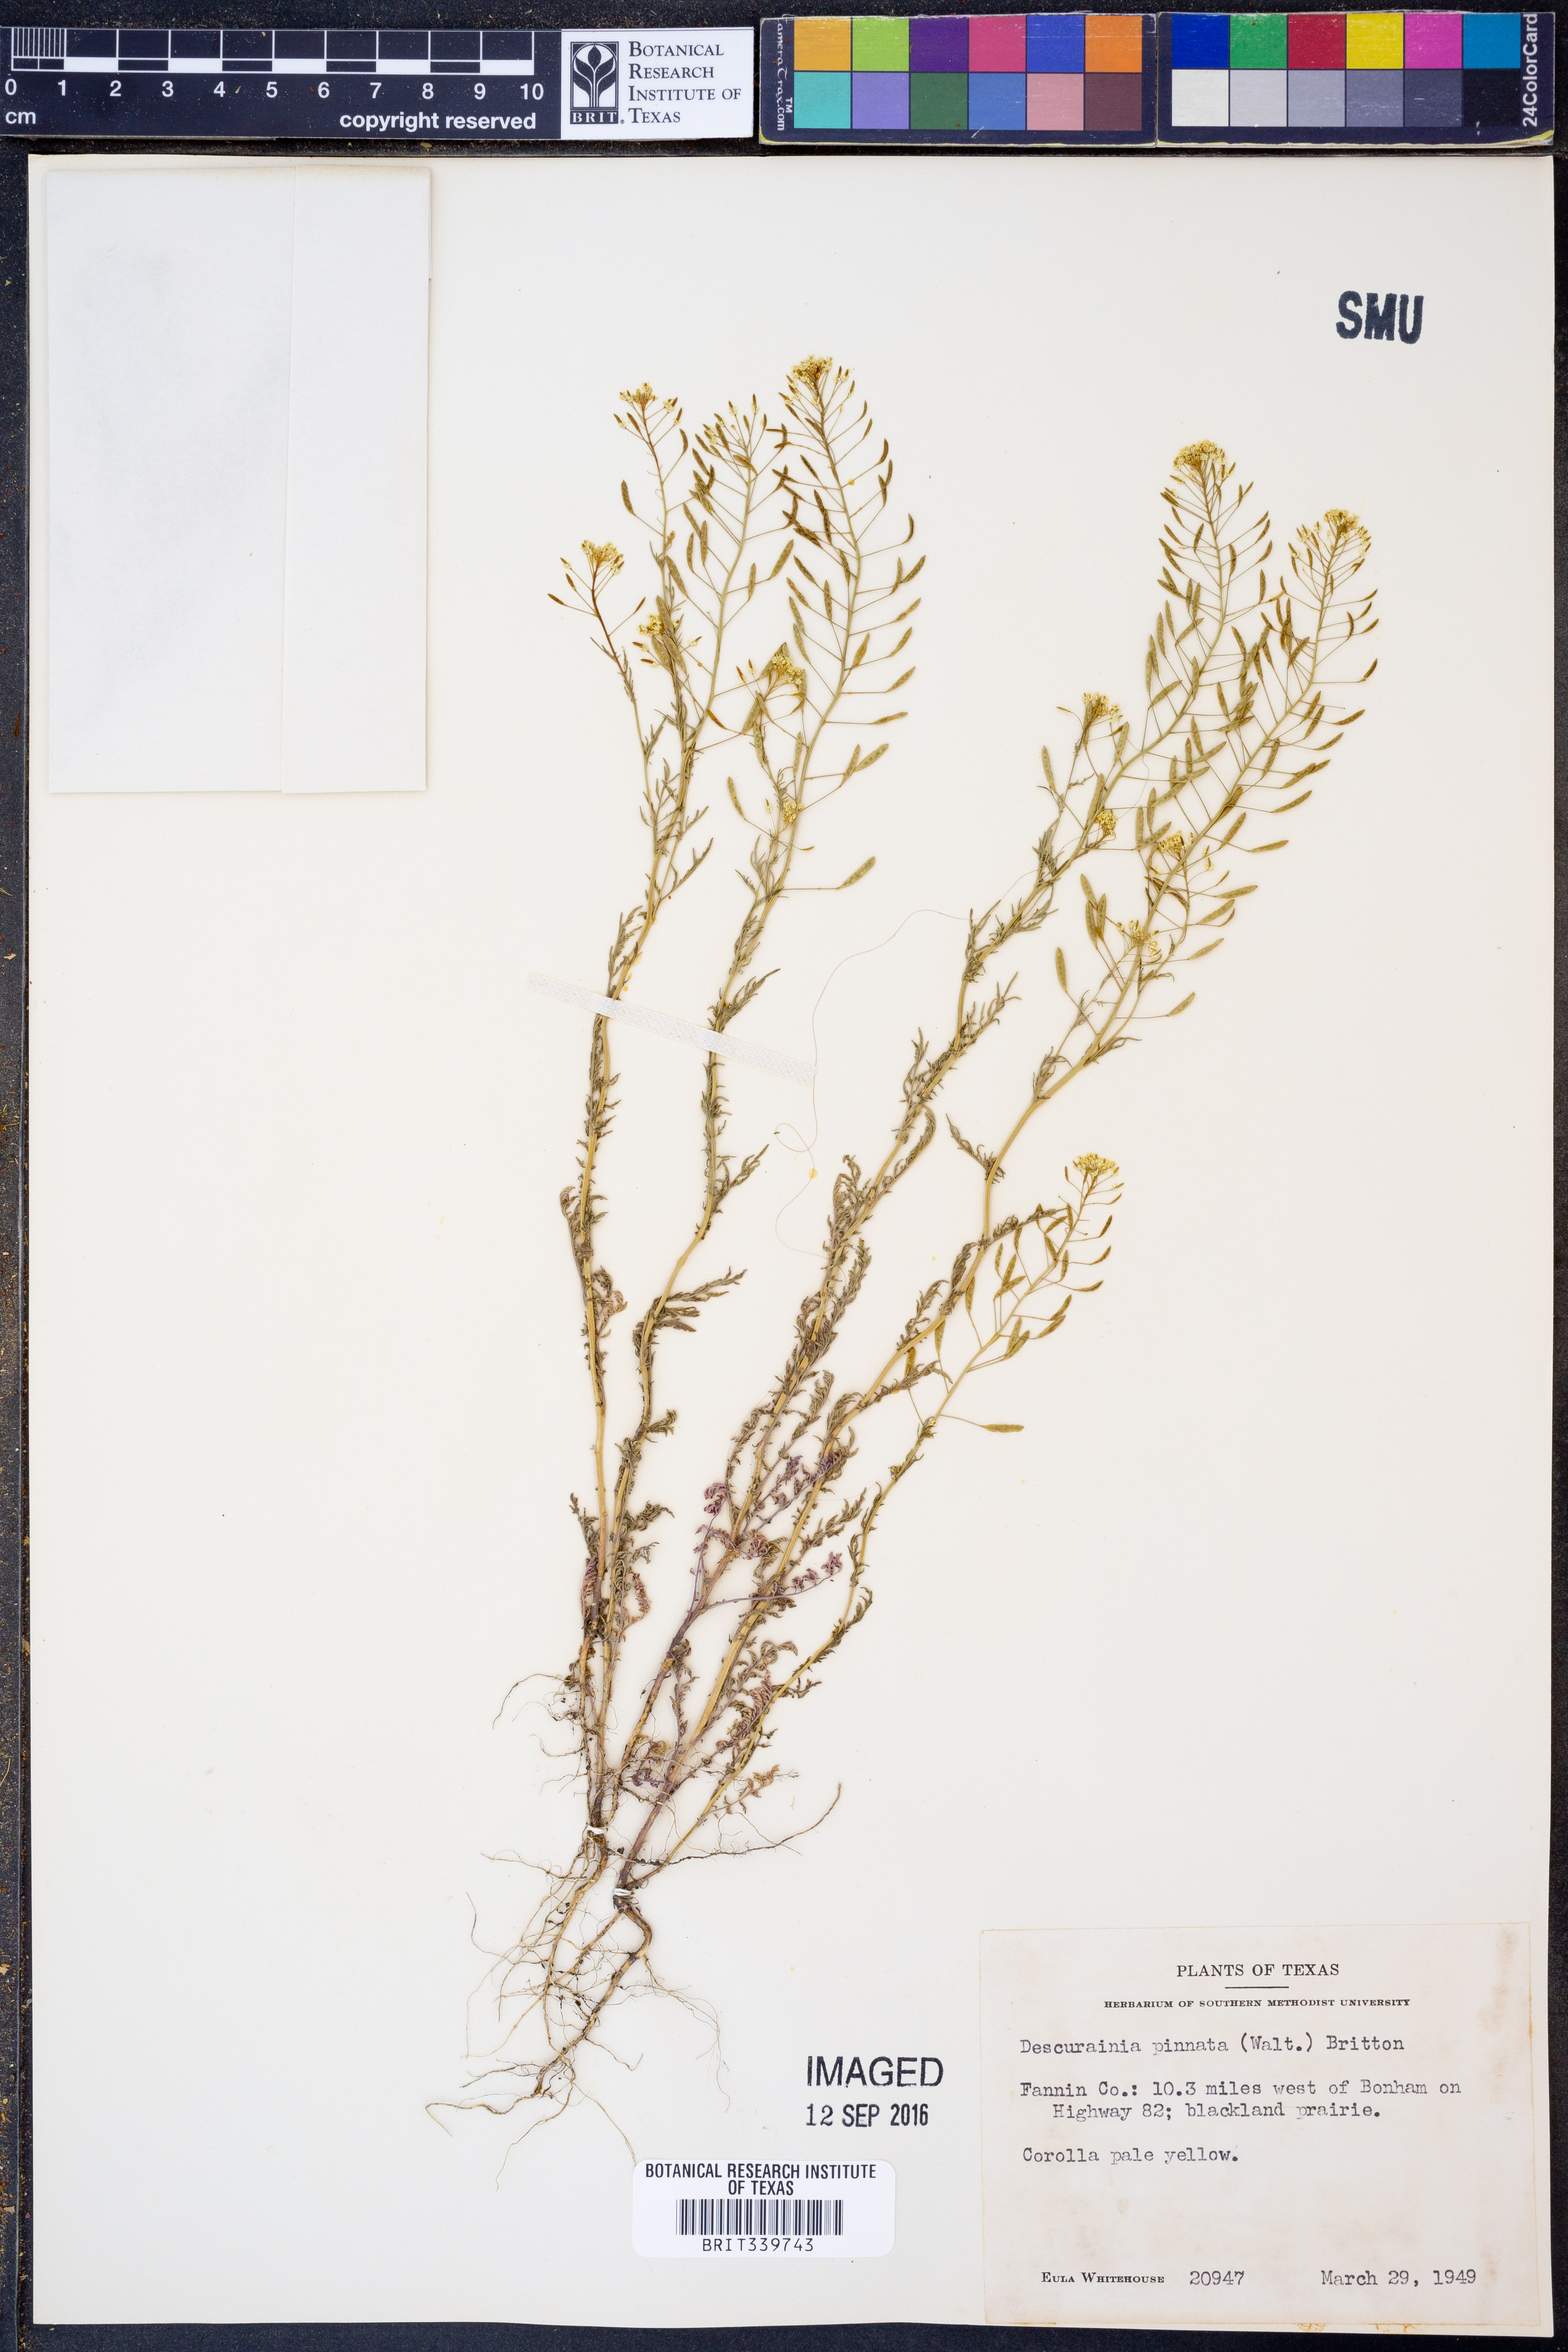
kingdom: Plantae
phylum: Tracheophyta
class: Magnoliopsida
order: Brassicales
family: Brassicaceae
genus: Descurainia
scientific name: Descurainia pinnata
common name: Western tansy mustard
